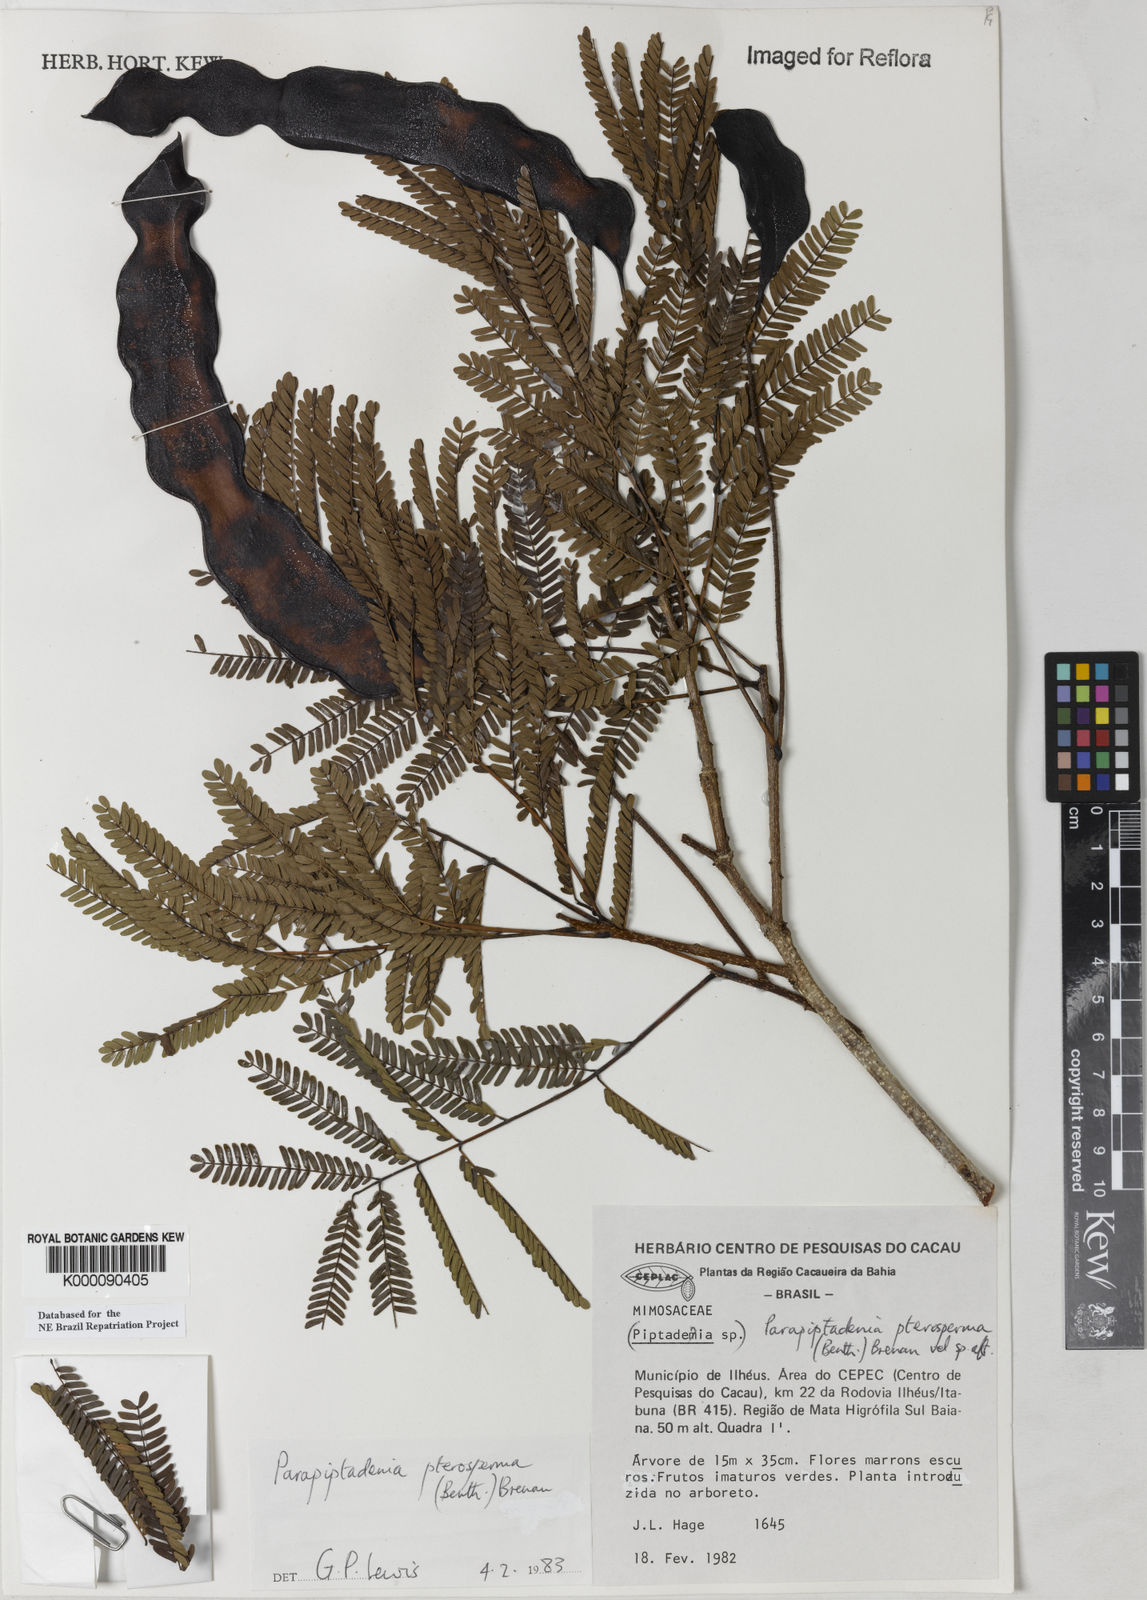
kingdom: Plantae
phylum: Tracheophyta
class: Magnoliopsida
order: Fabales
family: Fabaceae
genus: Parapiptadenia
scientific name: Parapiptadenia pterosperma
